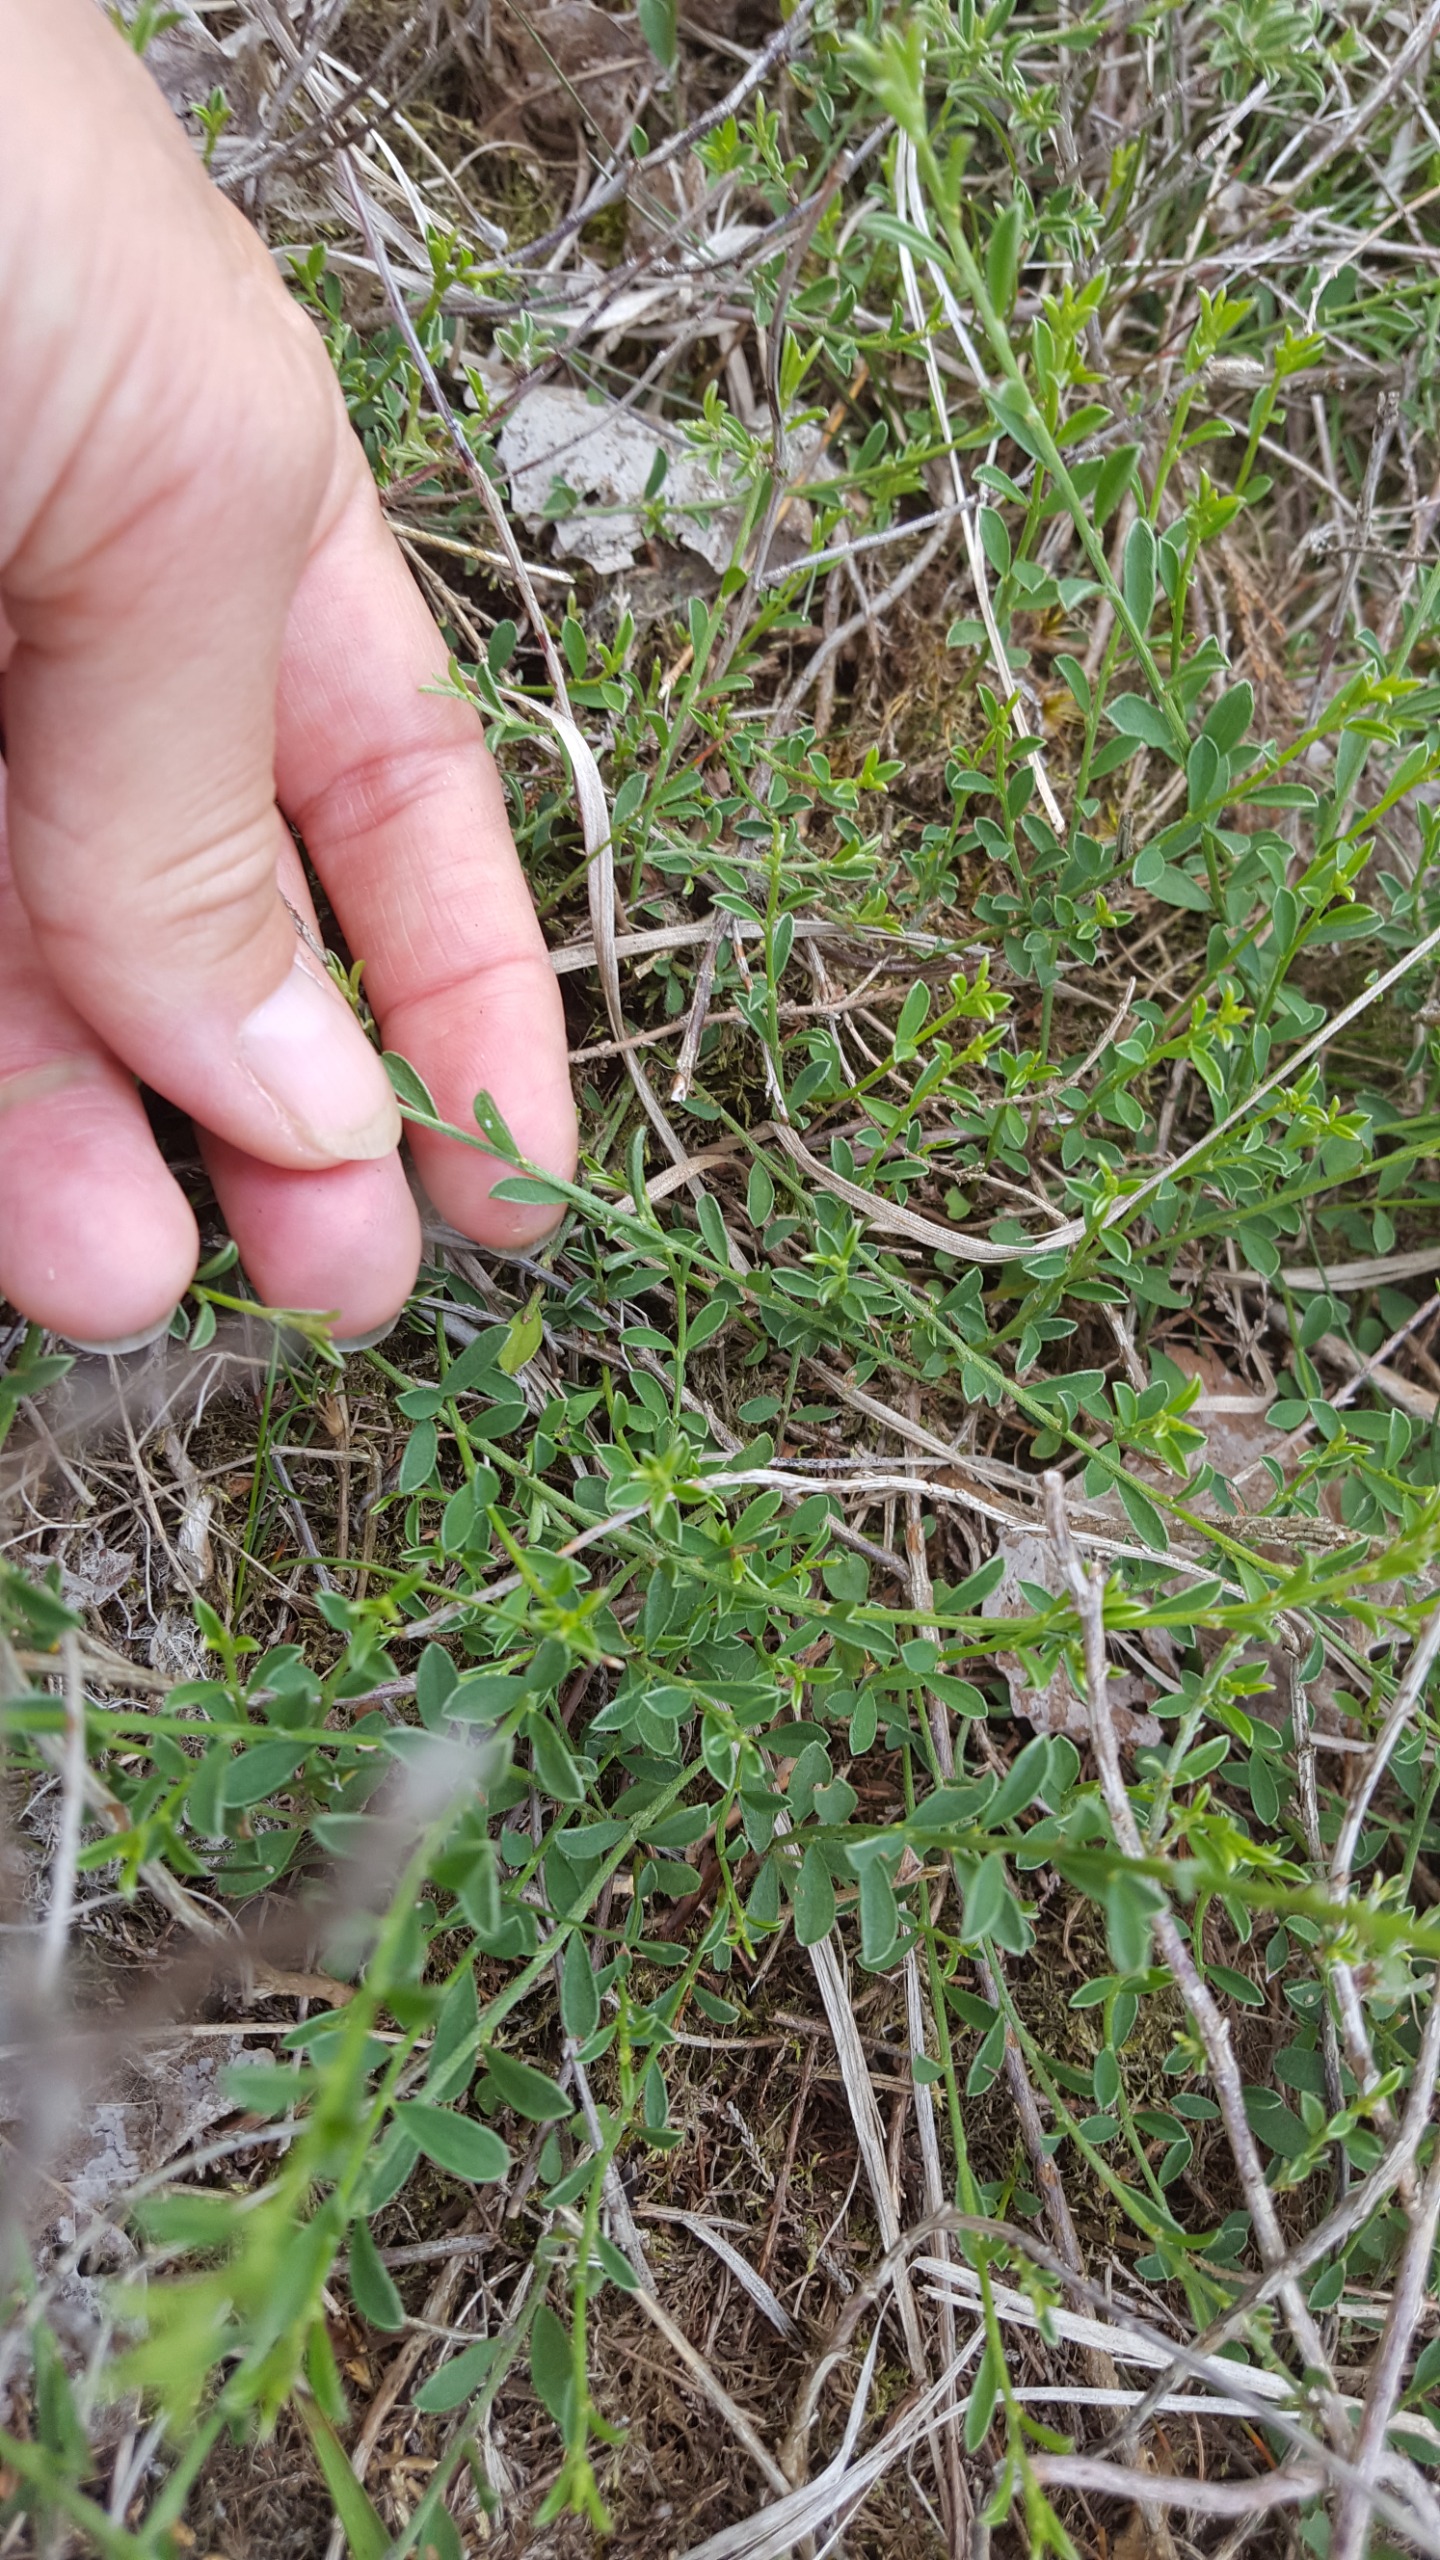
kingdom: Plantae
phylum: Tracheophyta
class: Magnoliopsida
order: Fabales
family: Fabaceae
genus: Genista
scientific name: Genista pilosa
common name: Håret visse
